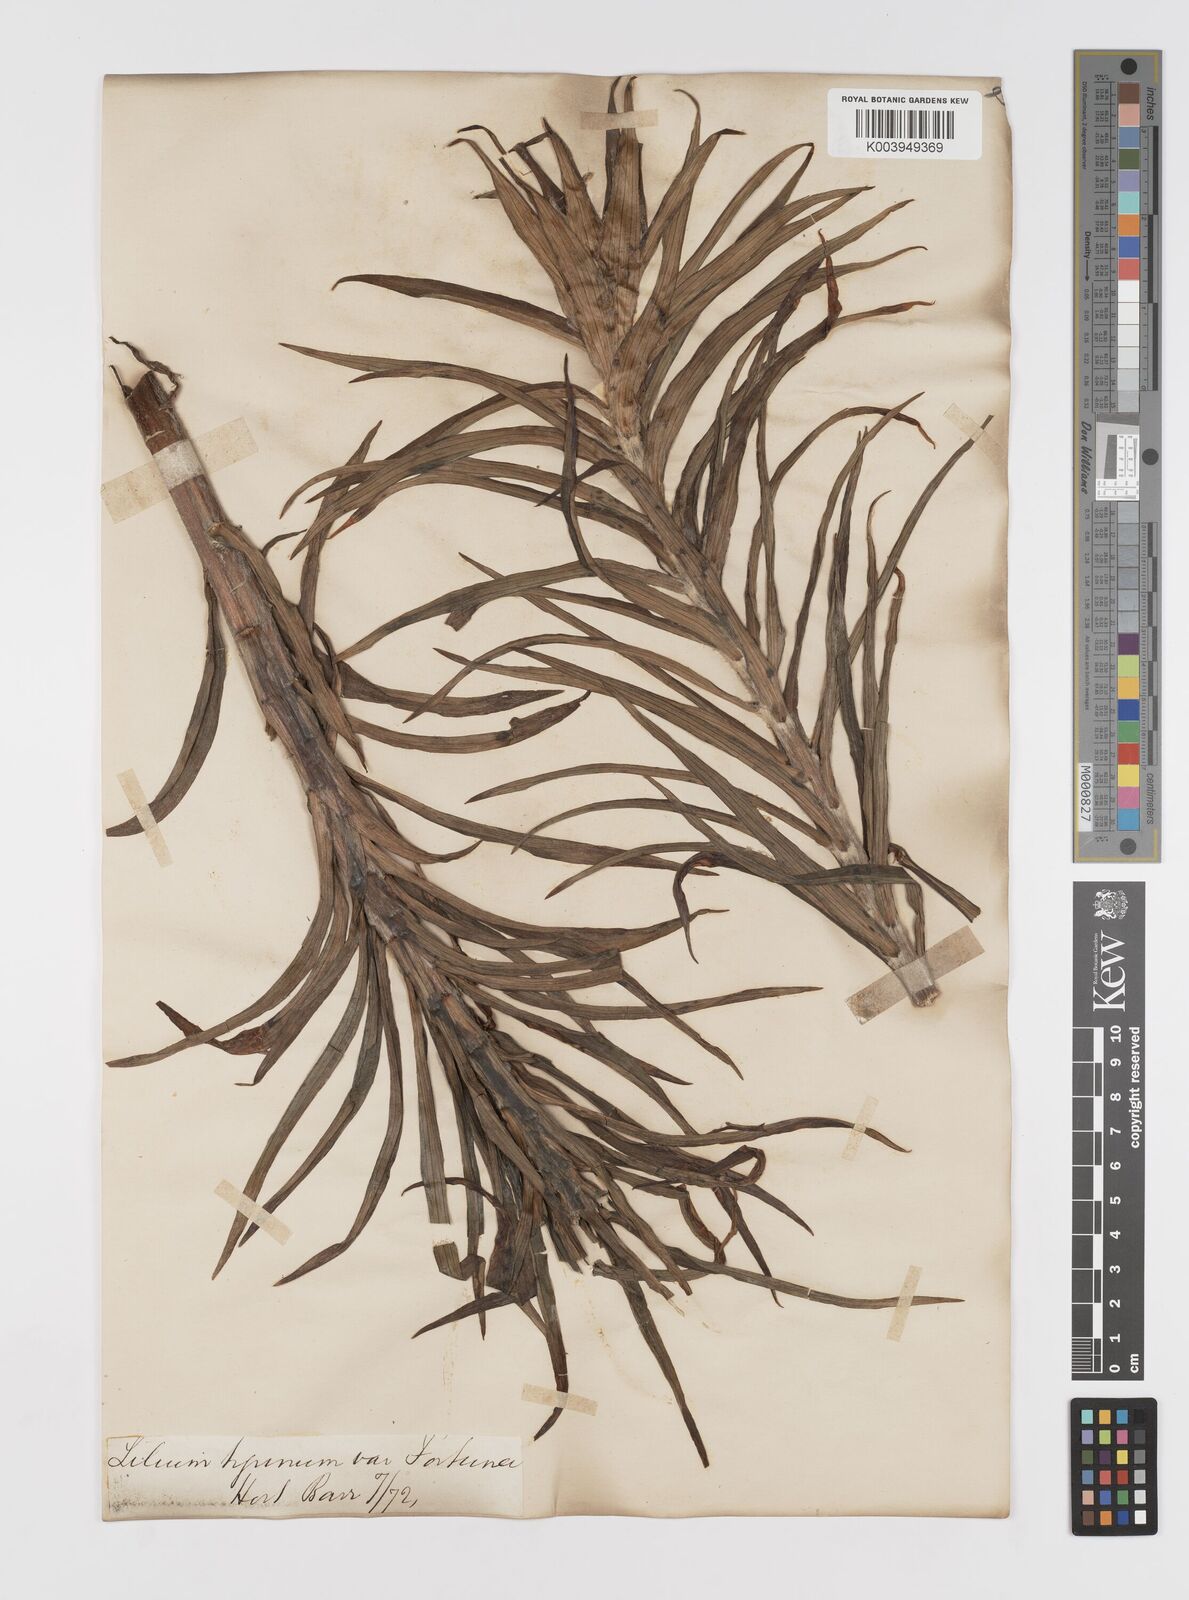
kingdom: Plantae
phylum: Tracheophyta
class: Liliopsida
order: Liliales
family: Liliaceae
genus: Lilium
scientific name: Lilium lancifolium
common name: Tiger lily
